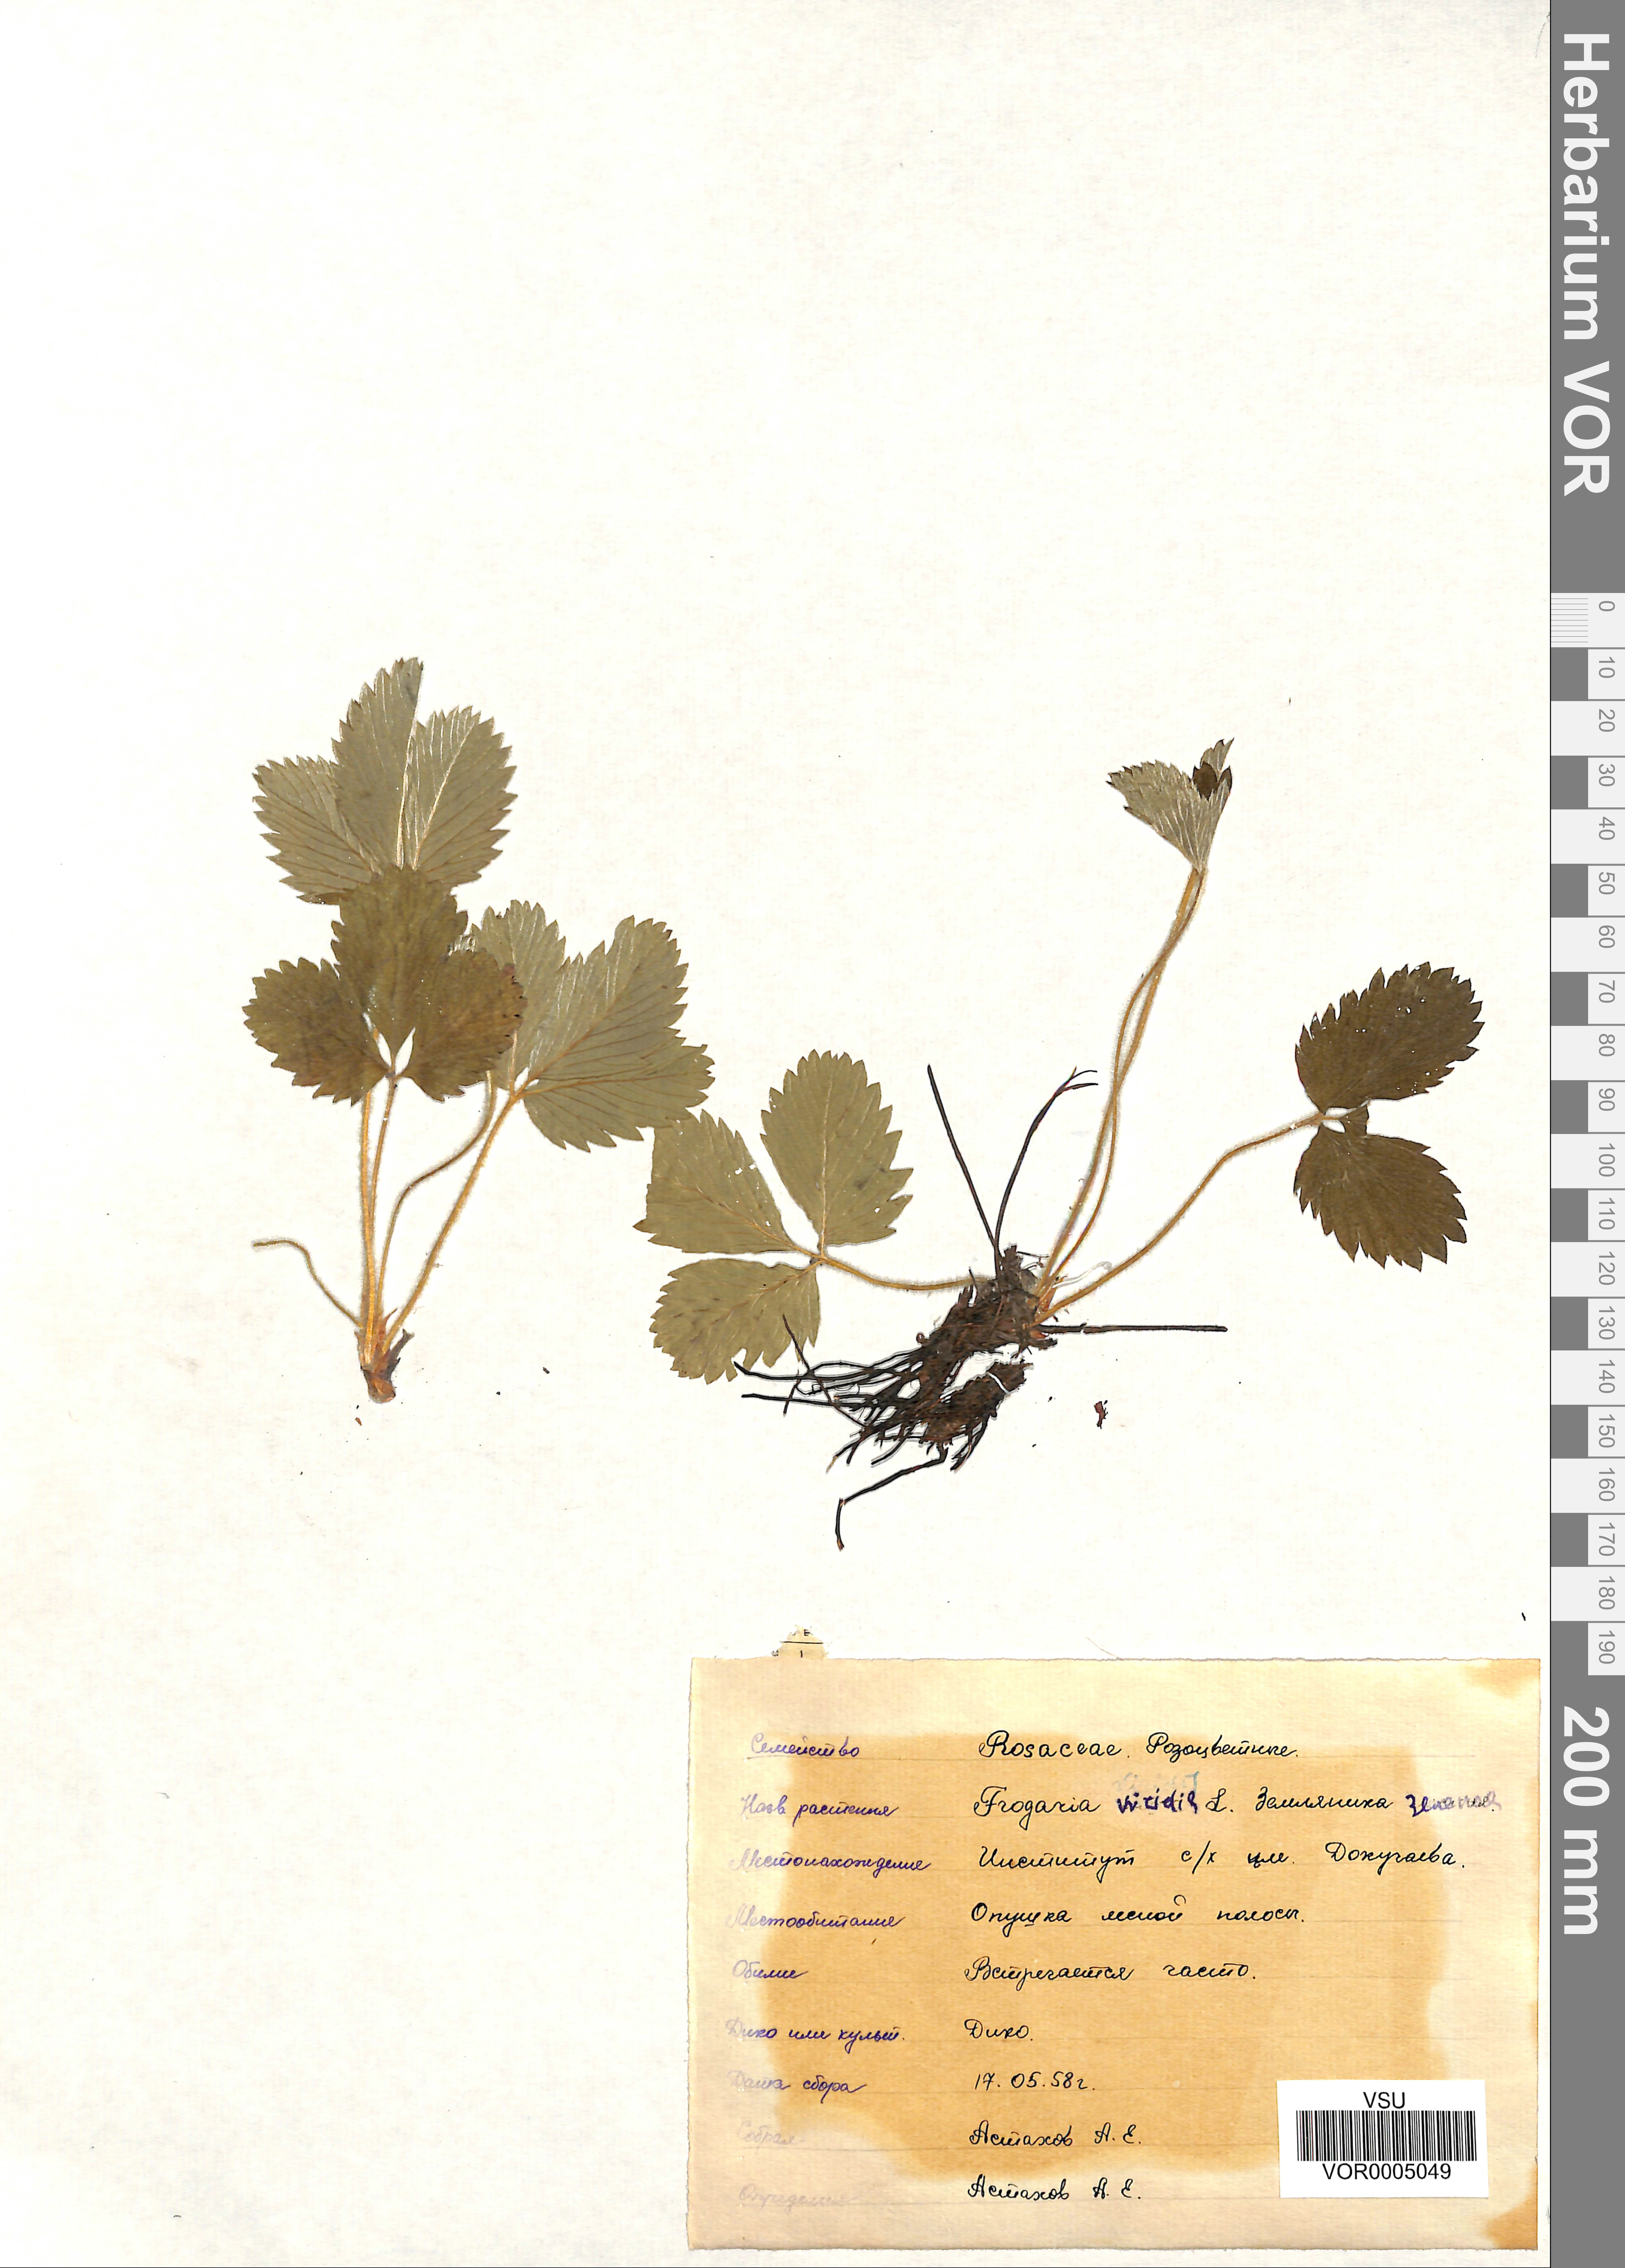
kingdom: Plantae
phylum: Tracheophyta
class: Magnoliopsida
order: Rosales
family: Rosaceae
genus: Fragaria
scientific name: Fragaria viridis
